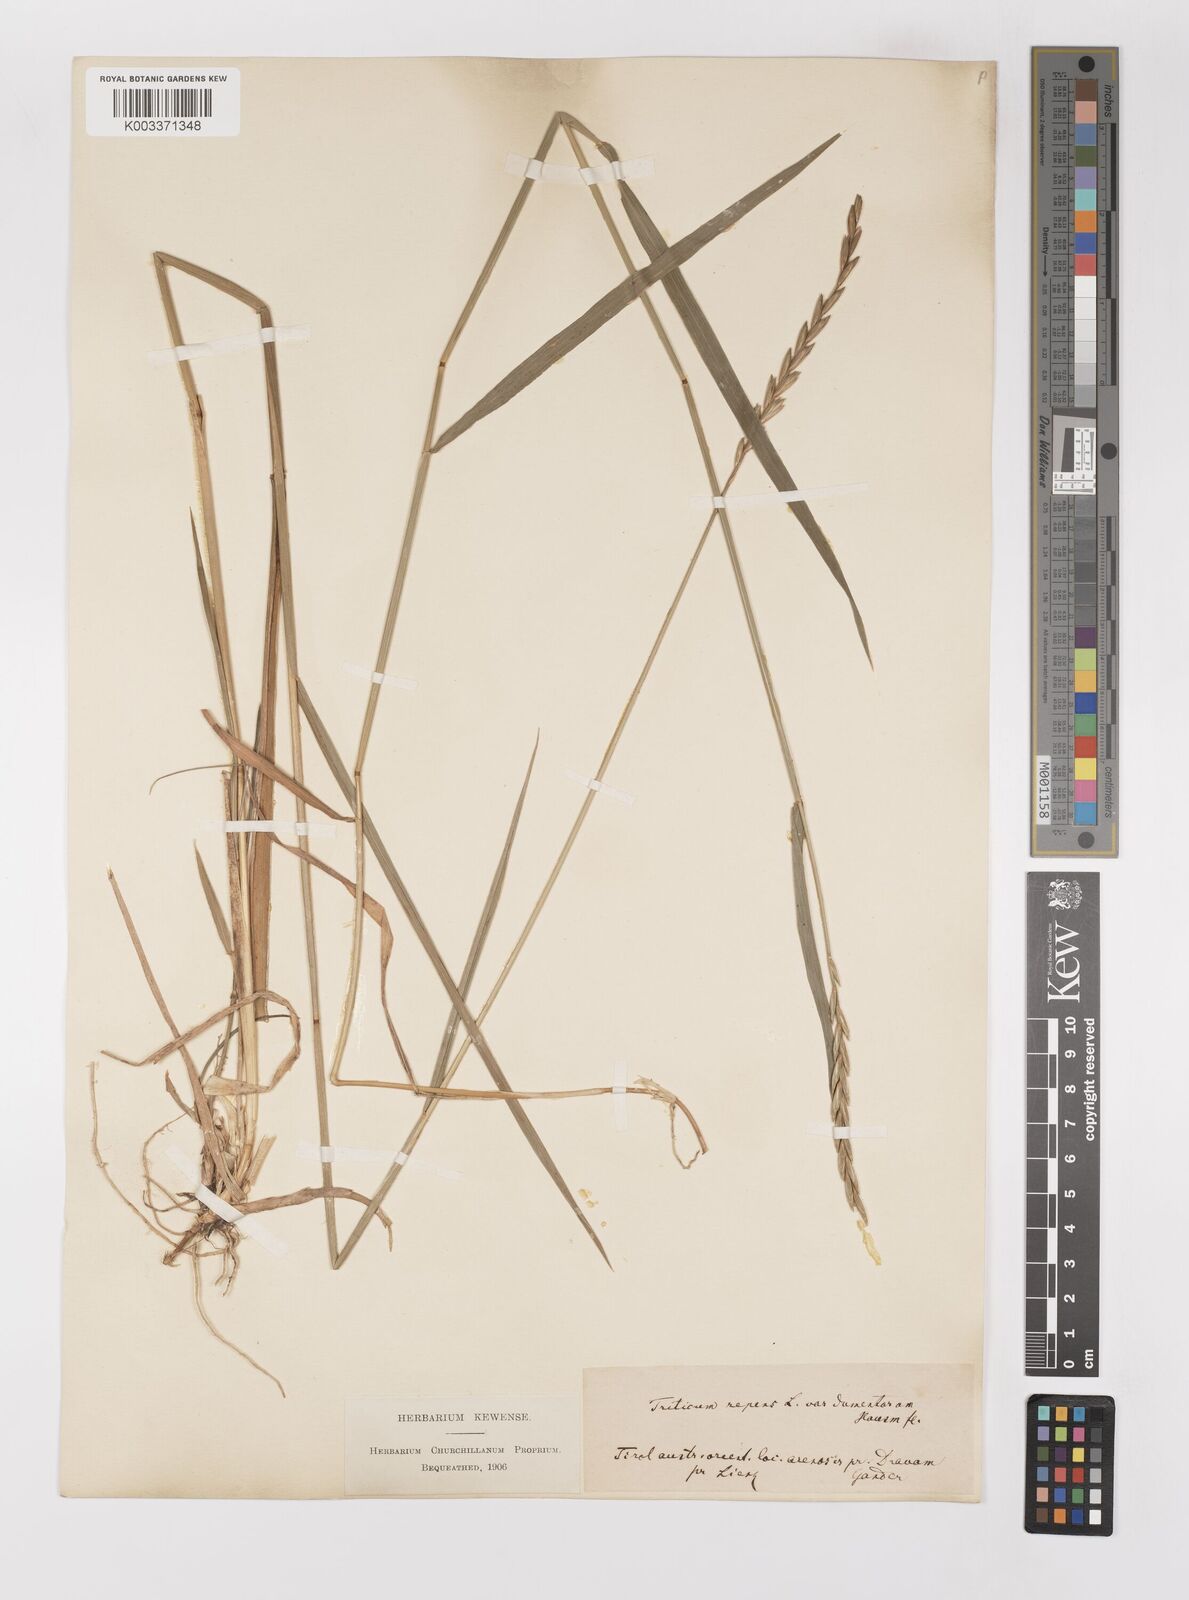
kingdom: Plantae
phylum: Tracheophyta
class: Liliopsida
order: Poales
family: Poaceae
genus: Elymus
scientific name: Elymus repens
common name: Quackgrass
